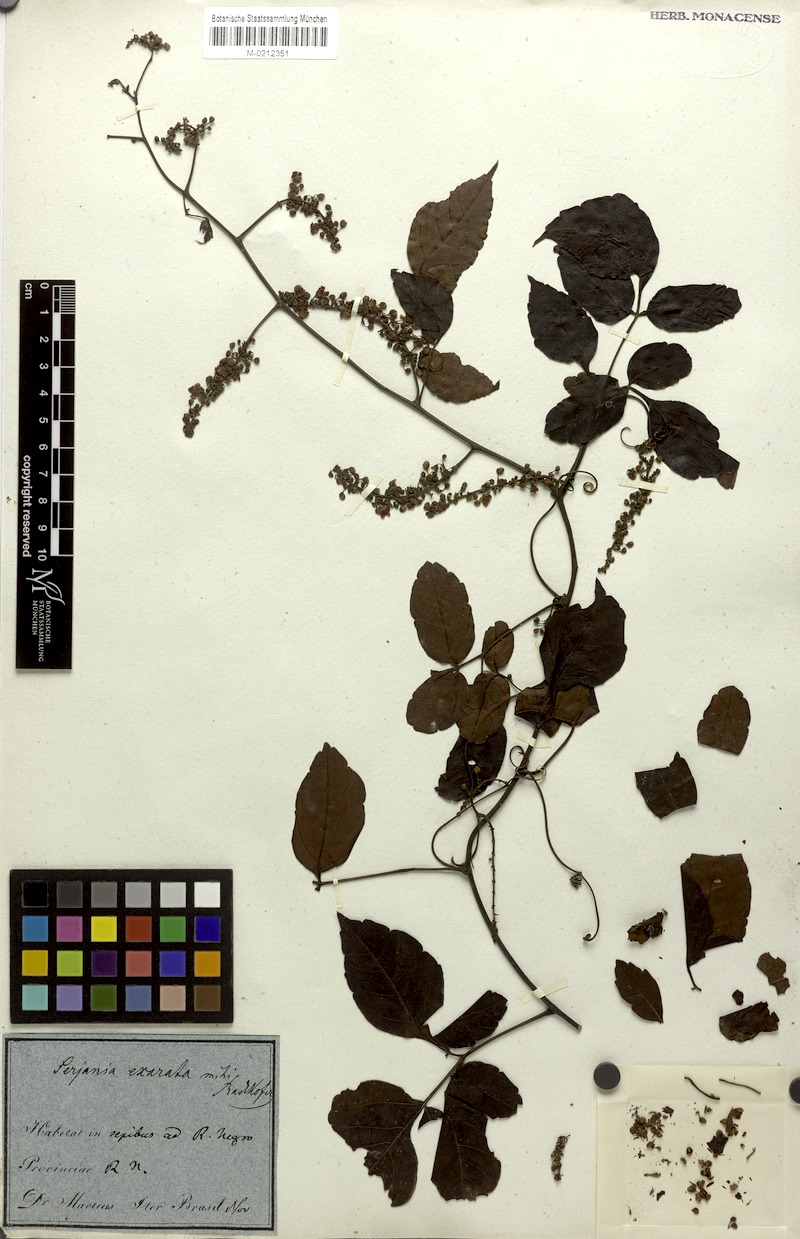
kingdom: Plantae
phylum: Tracheophyta
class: Magnoliopsida
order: Sapindales
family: Sapindaceae
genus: Serjania
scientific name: Serjania membranacea
